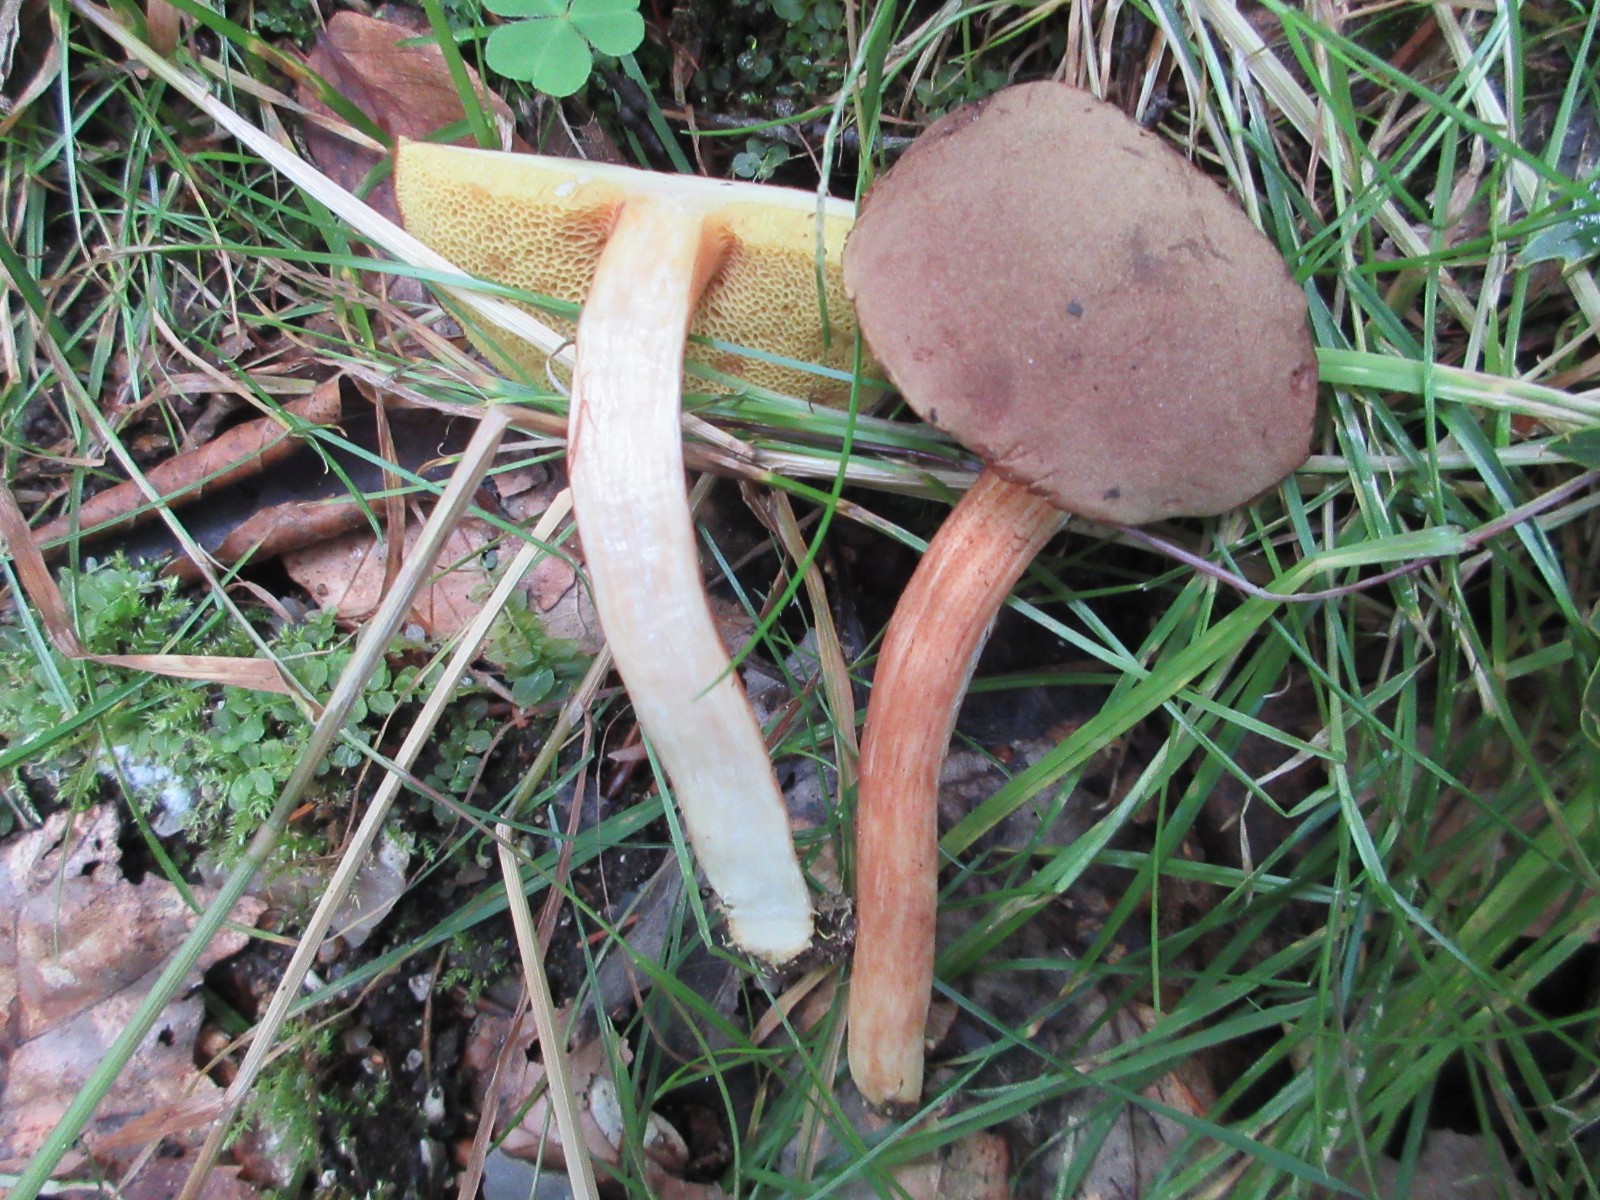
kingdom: Fungi
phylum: Basidiomycota
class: Agaricomycetes
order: Boletales
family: Boletaceae
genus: Xerocomus
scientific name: Xerocomus ferrugineus
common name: vaskeskinds-rørhat
